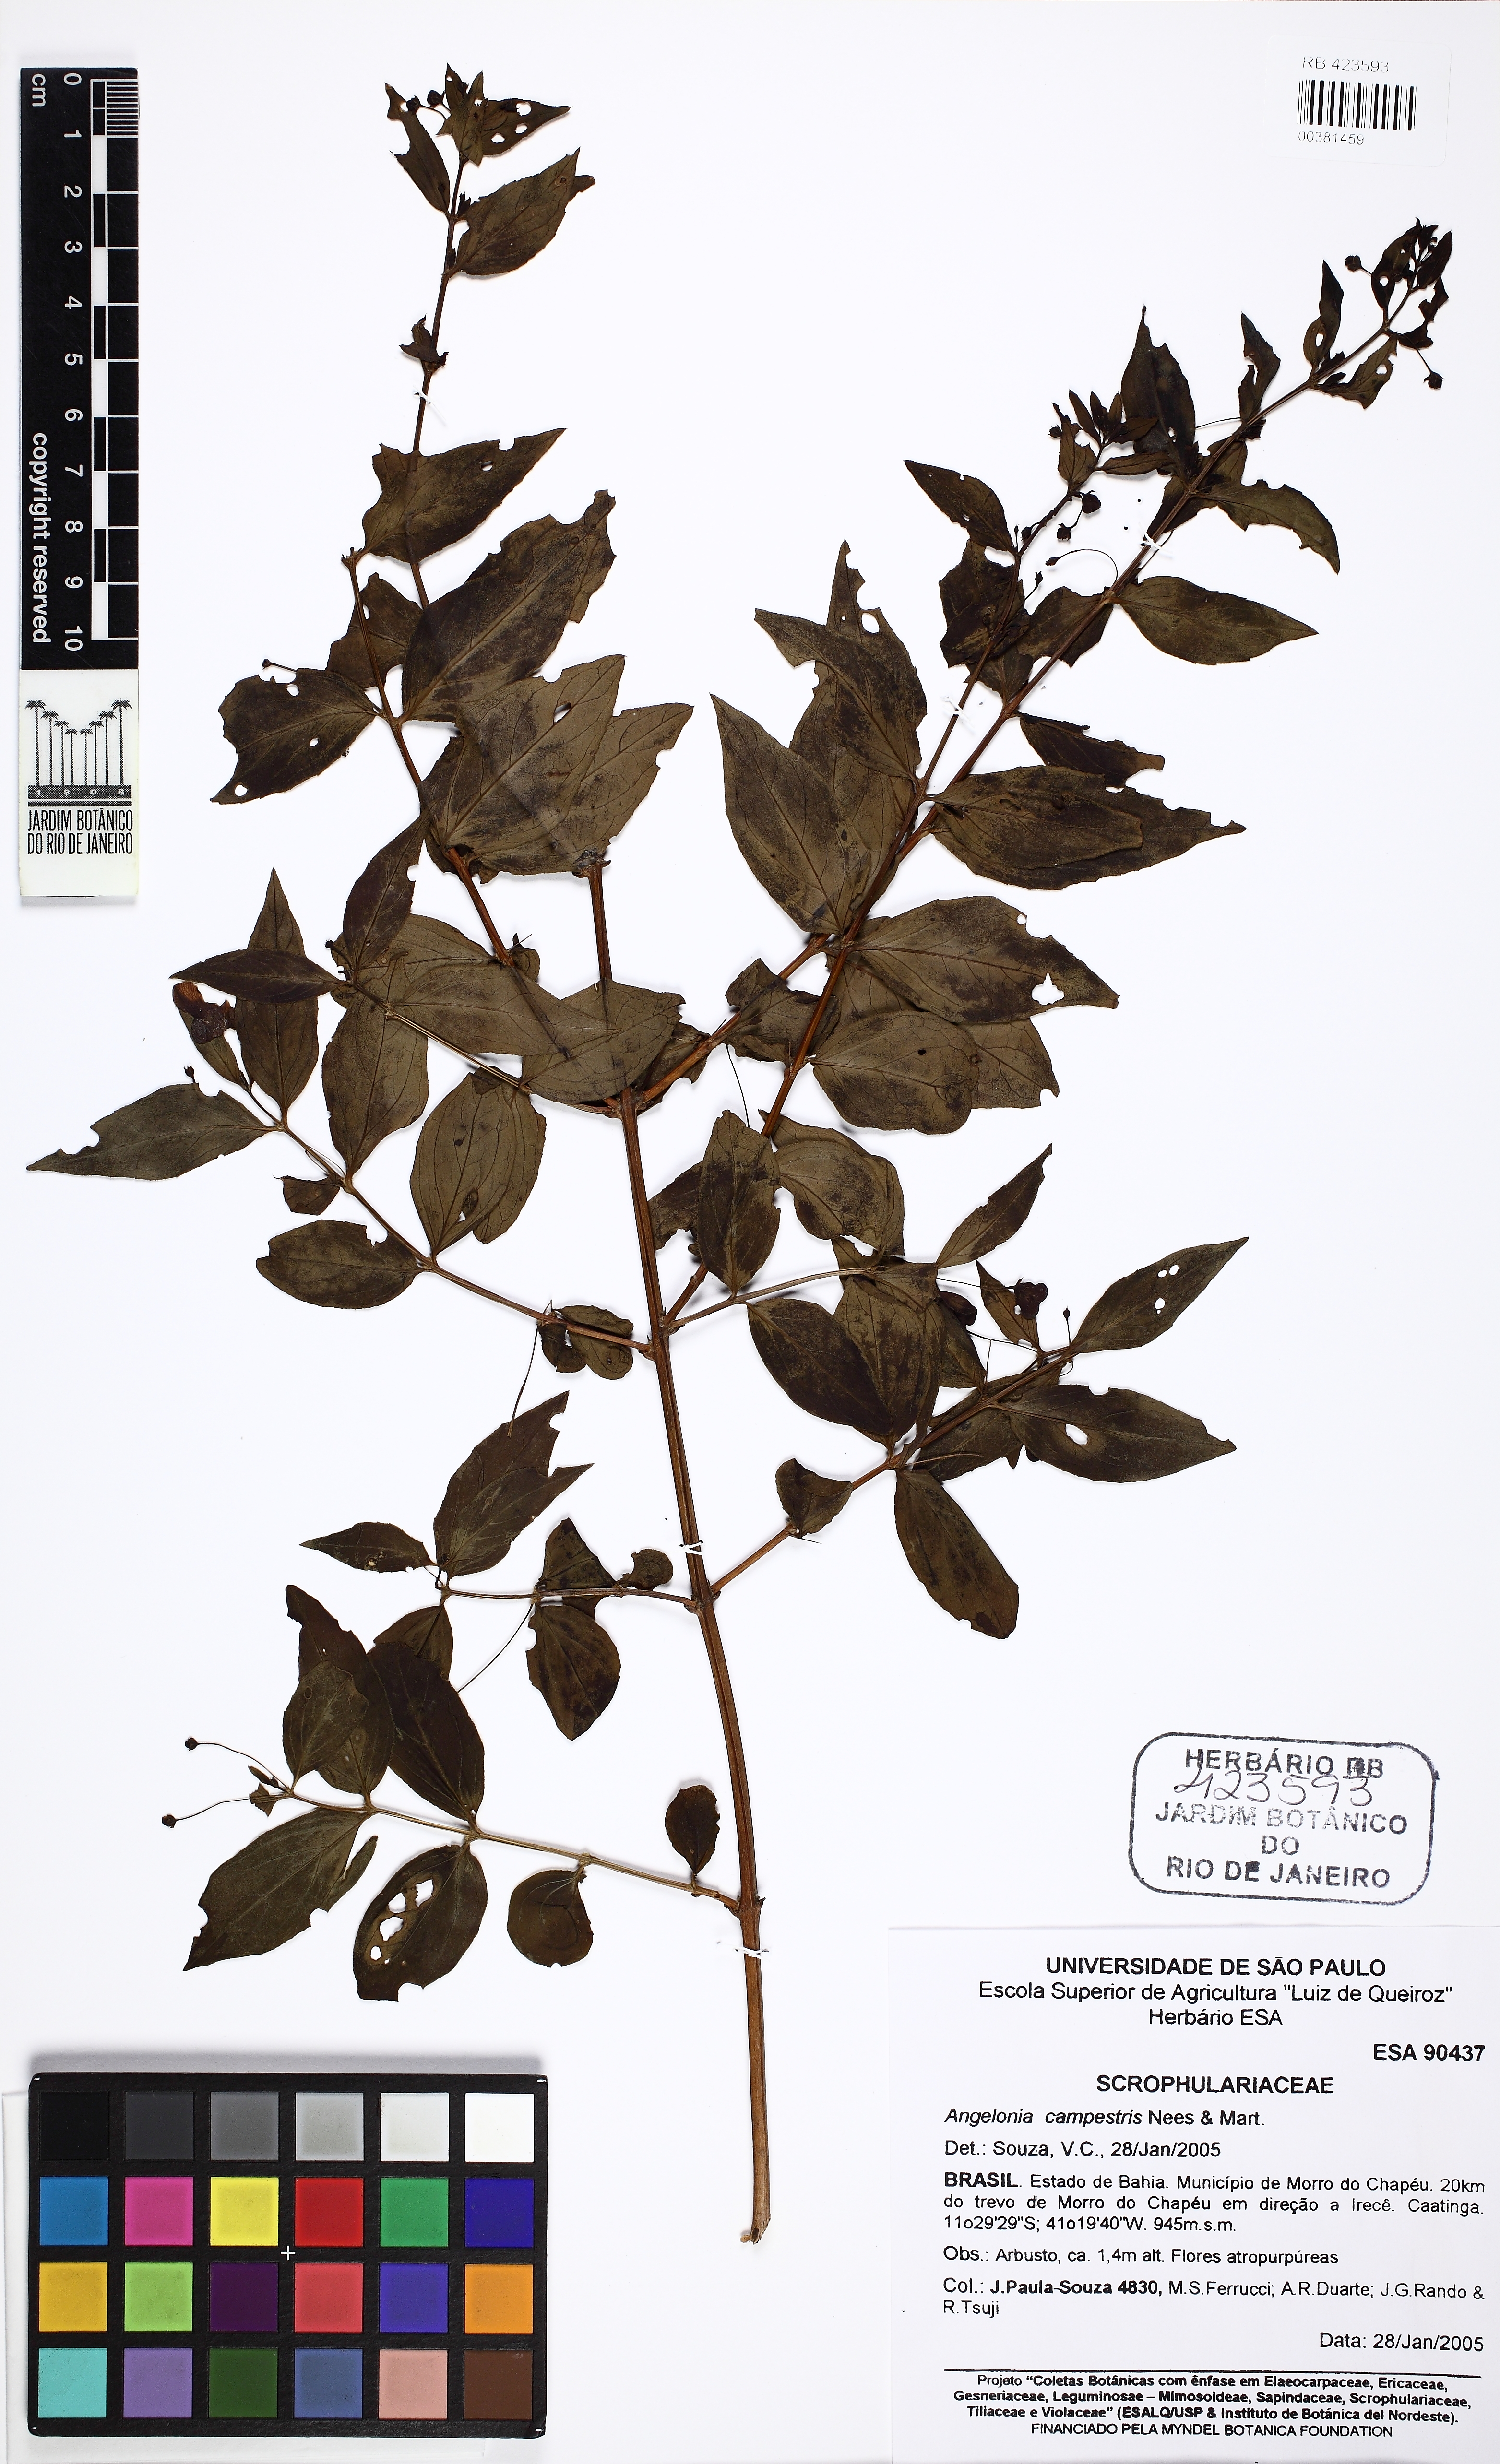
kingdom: Plantae
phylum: Tracheophyta
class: Magnoliopsida
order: Lamiales
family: Plantaginaceae
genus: Angelonia
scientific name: Angelonia campestris
